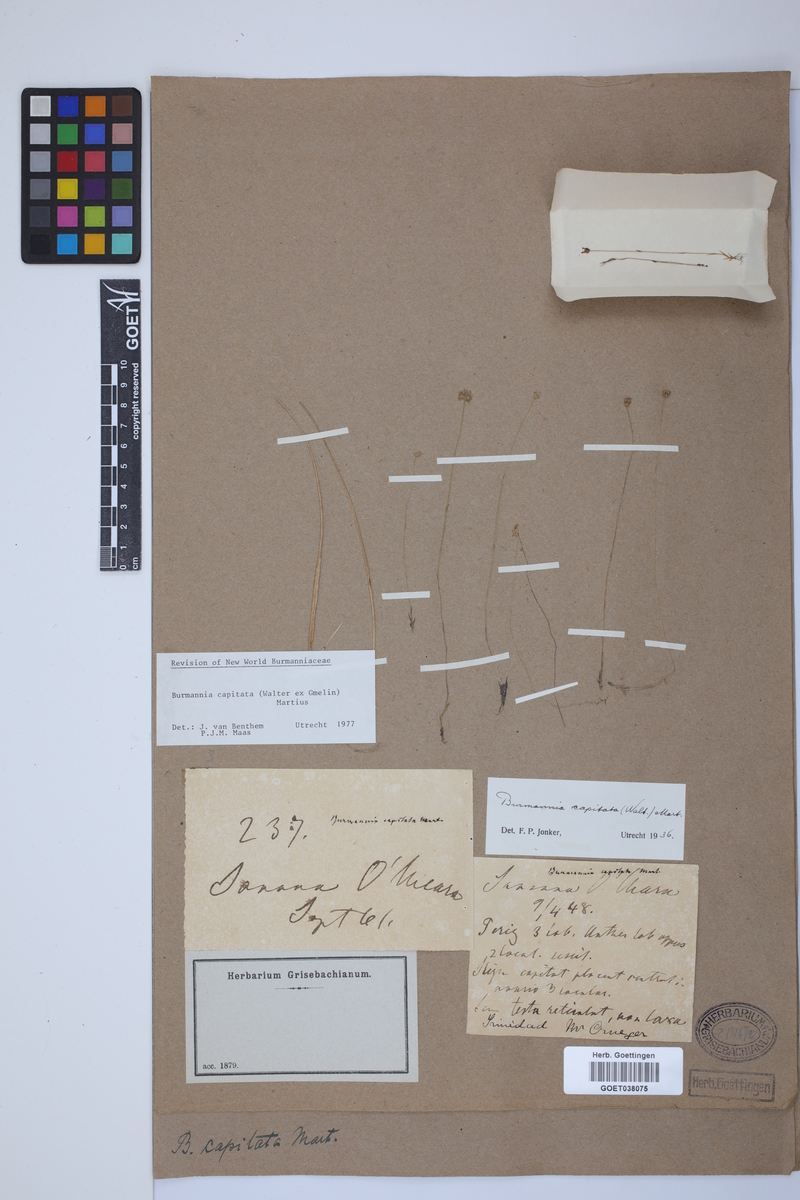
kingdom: Plantae
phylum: Tracheophyta
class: Liliopsida
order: Dioscoreales
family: Burmanniaceae
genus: Burmannia
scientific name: Burmannia capitata
